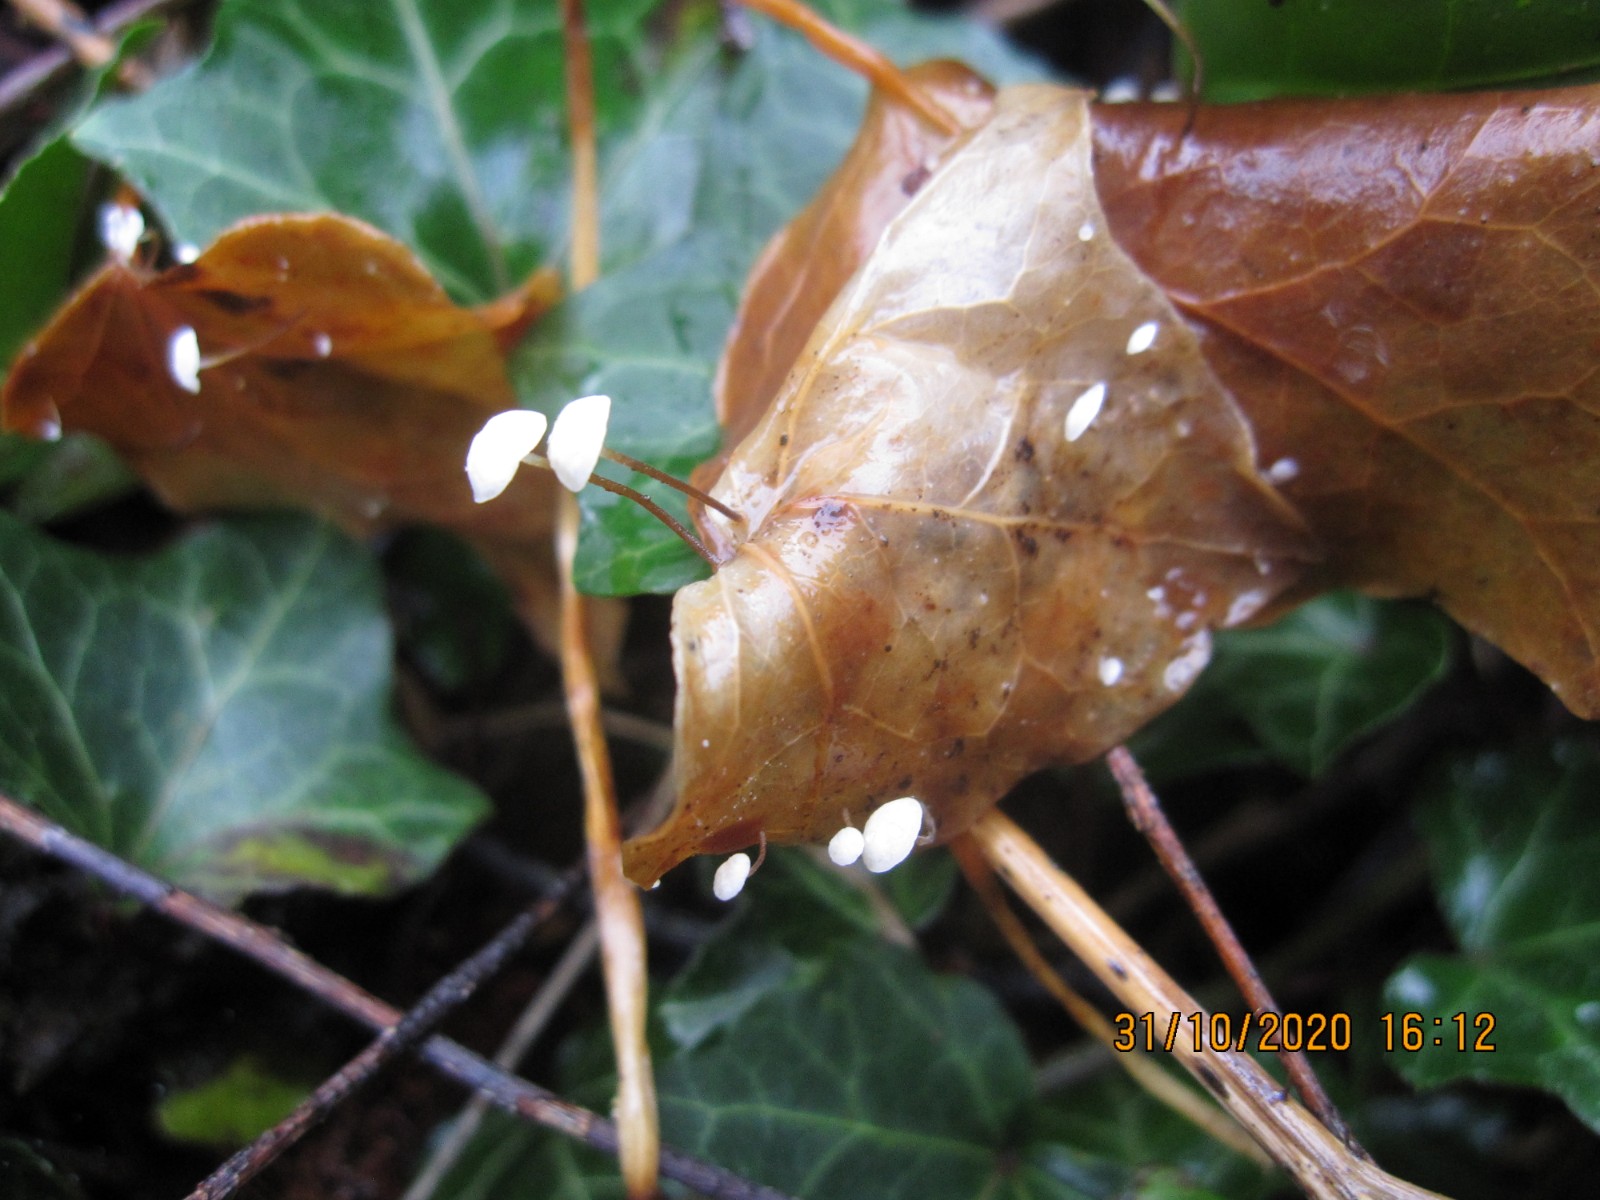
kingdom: Fungi
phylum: Basidiomycota
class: Agaricomycetes
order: Agaricales
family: Marasmiaceae
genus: Marasmius
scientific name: Marasmius epiphylloides
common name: vedbend-bruskhat
